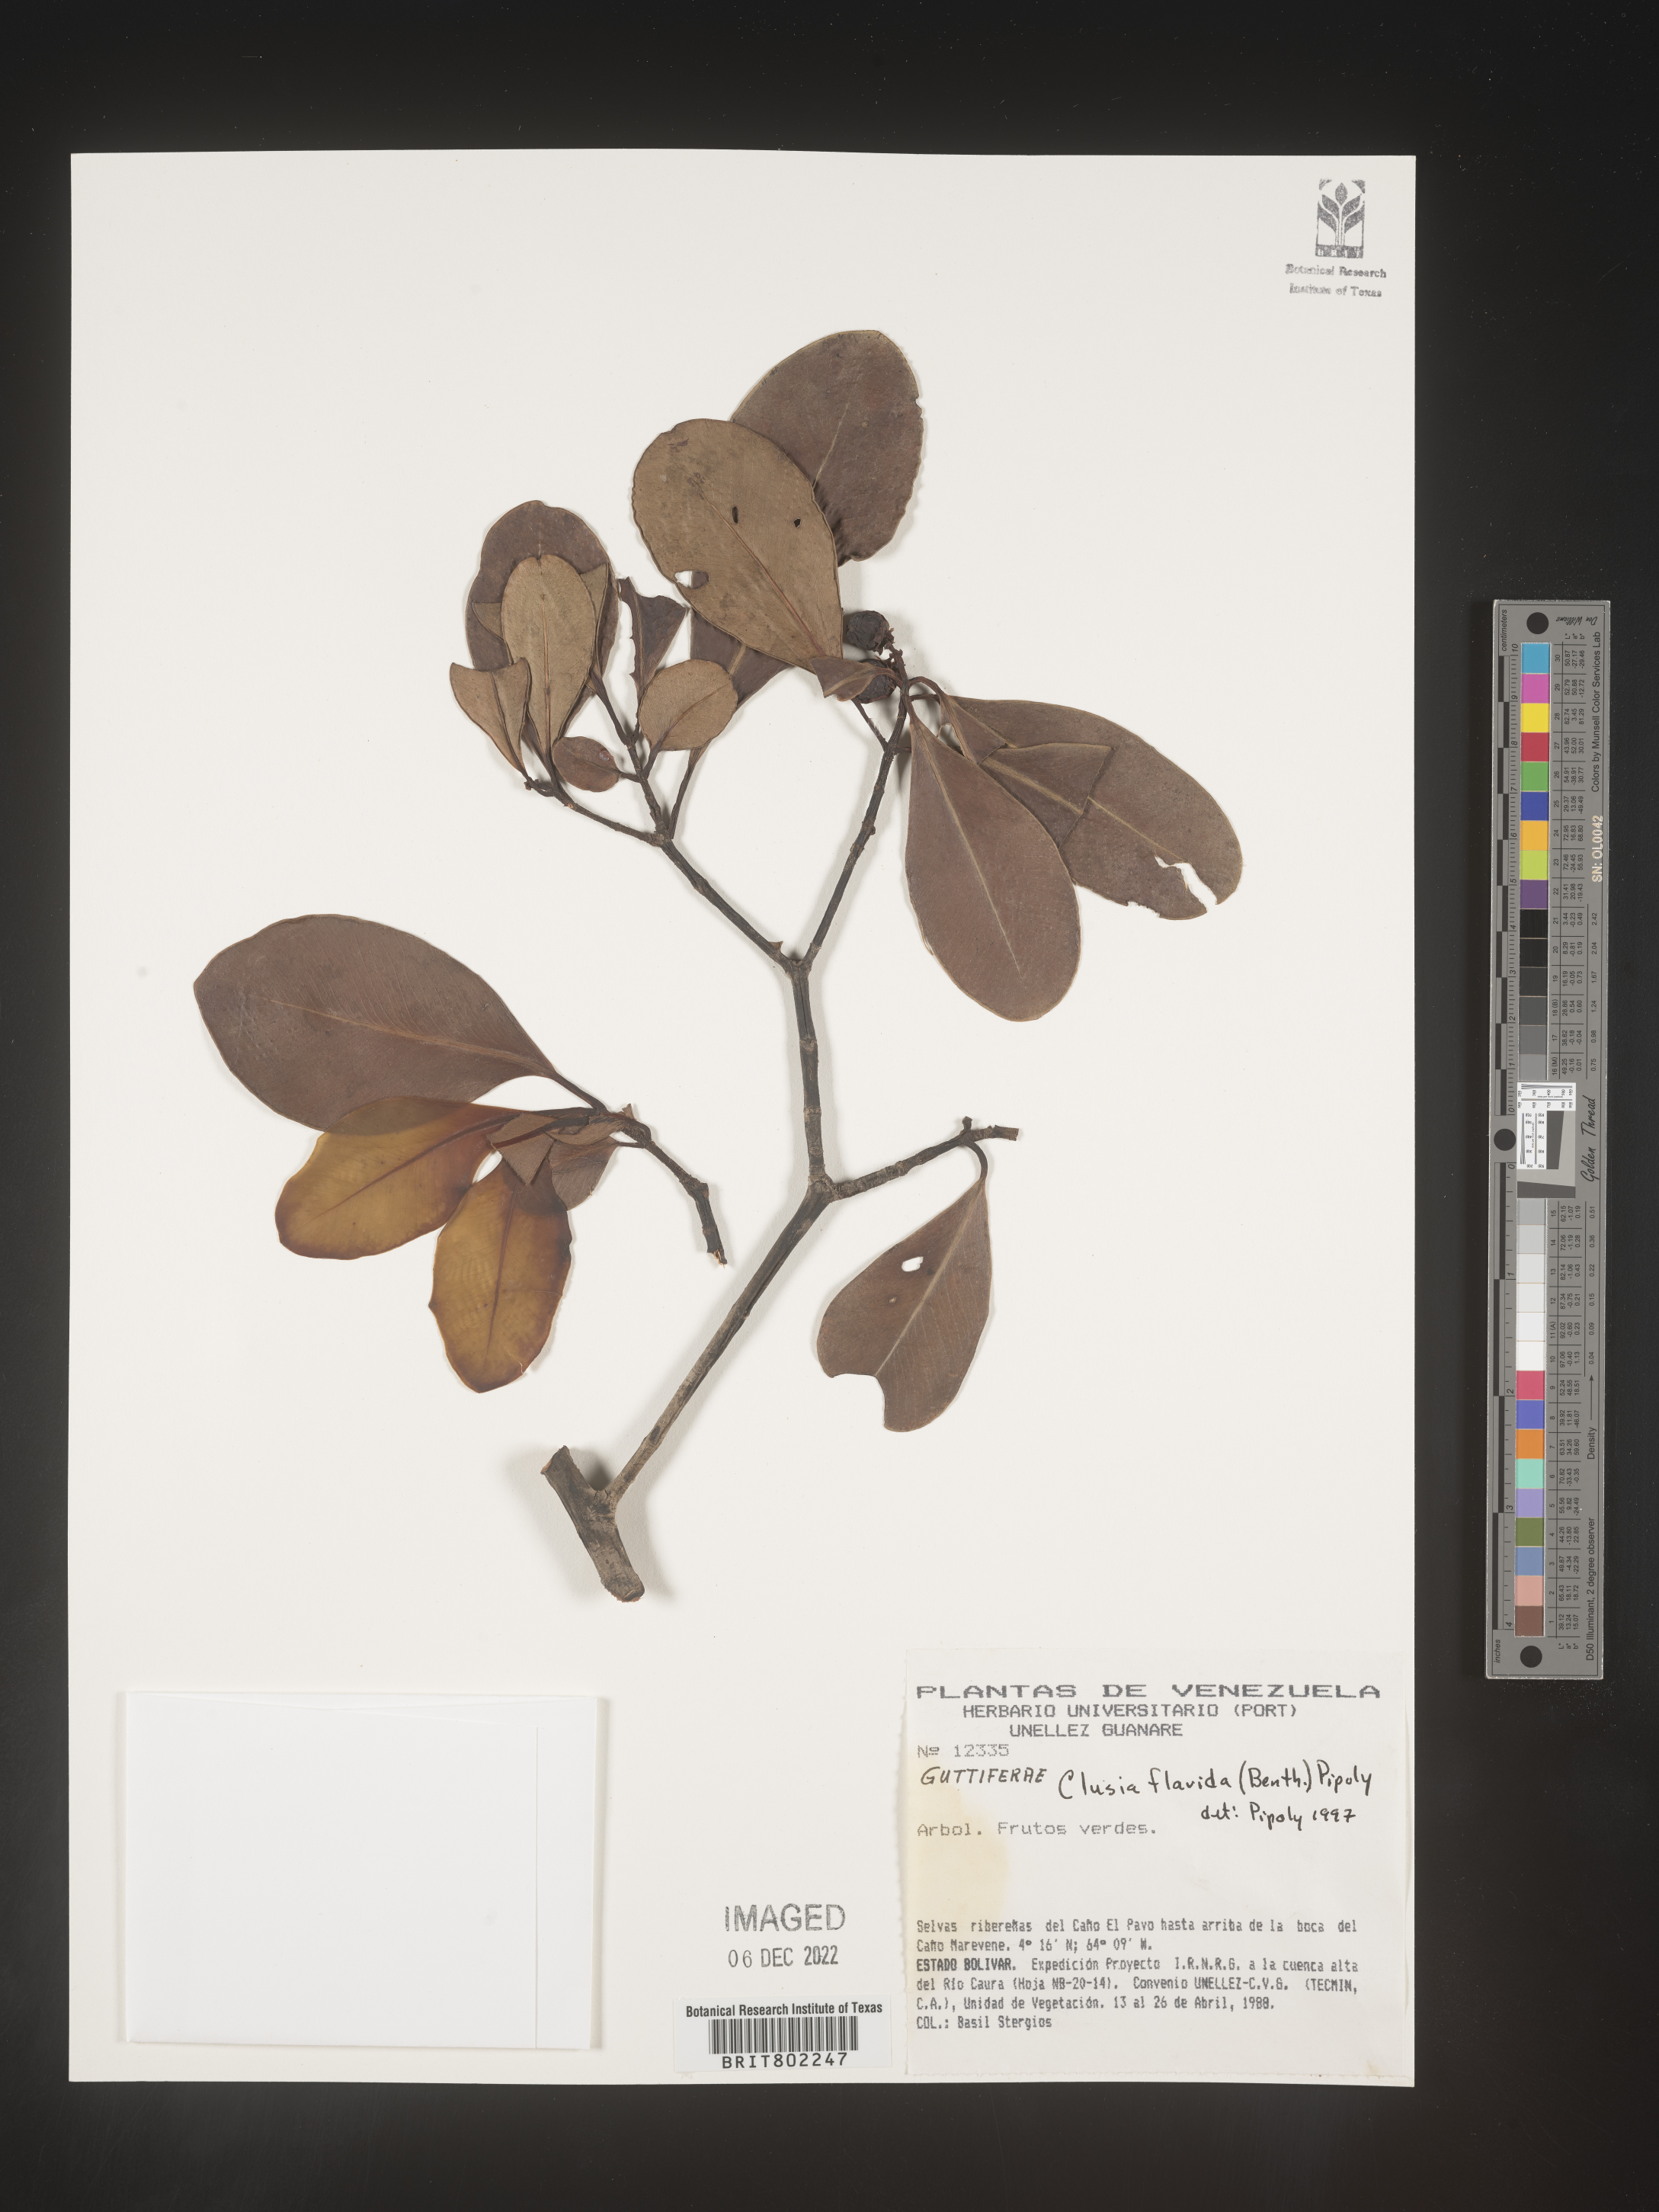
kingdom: Plantae
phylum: Tracheophyta
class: Magnoliopsida
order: Malpighiales
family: Clusiaceae
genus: Clusia
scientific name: Clusia flavida
